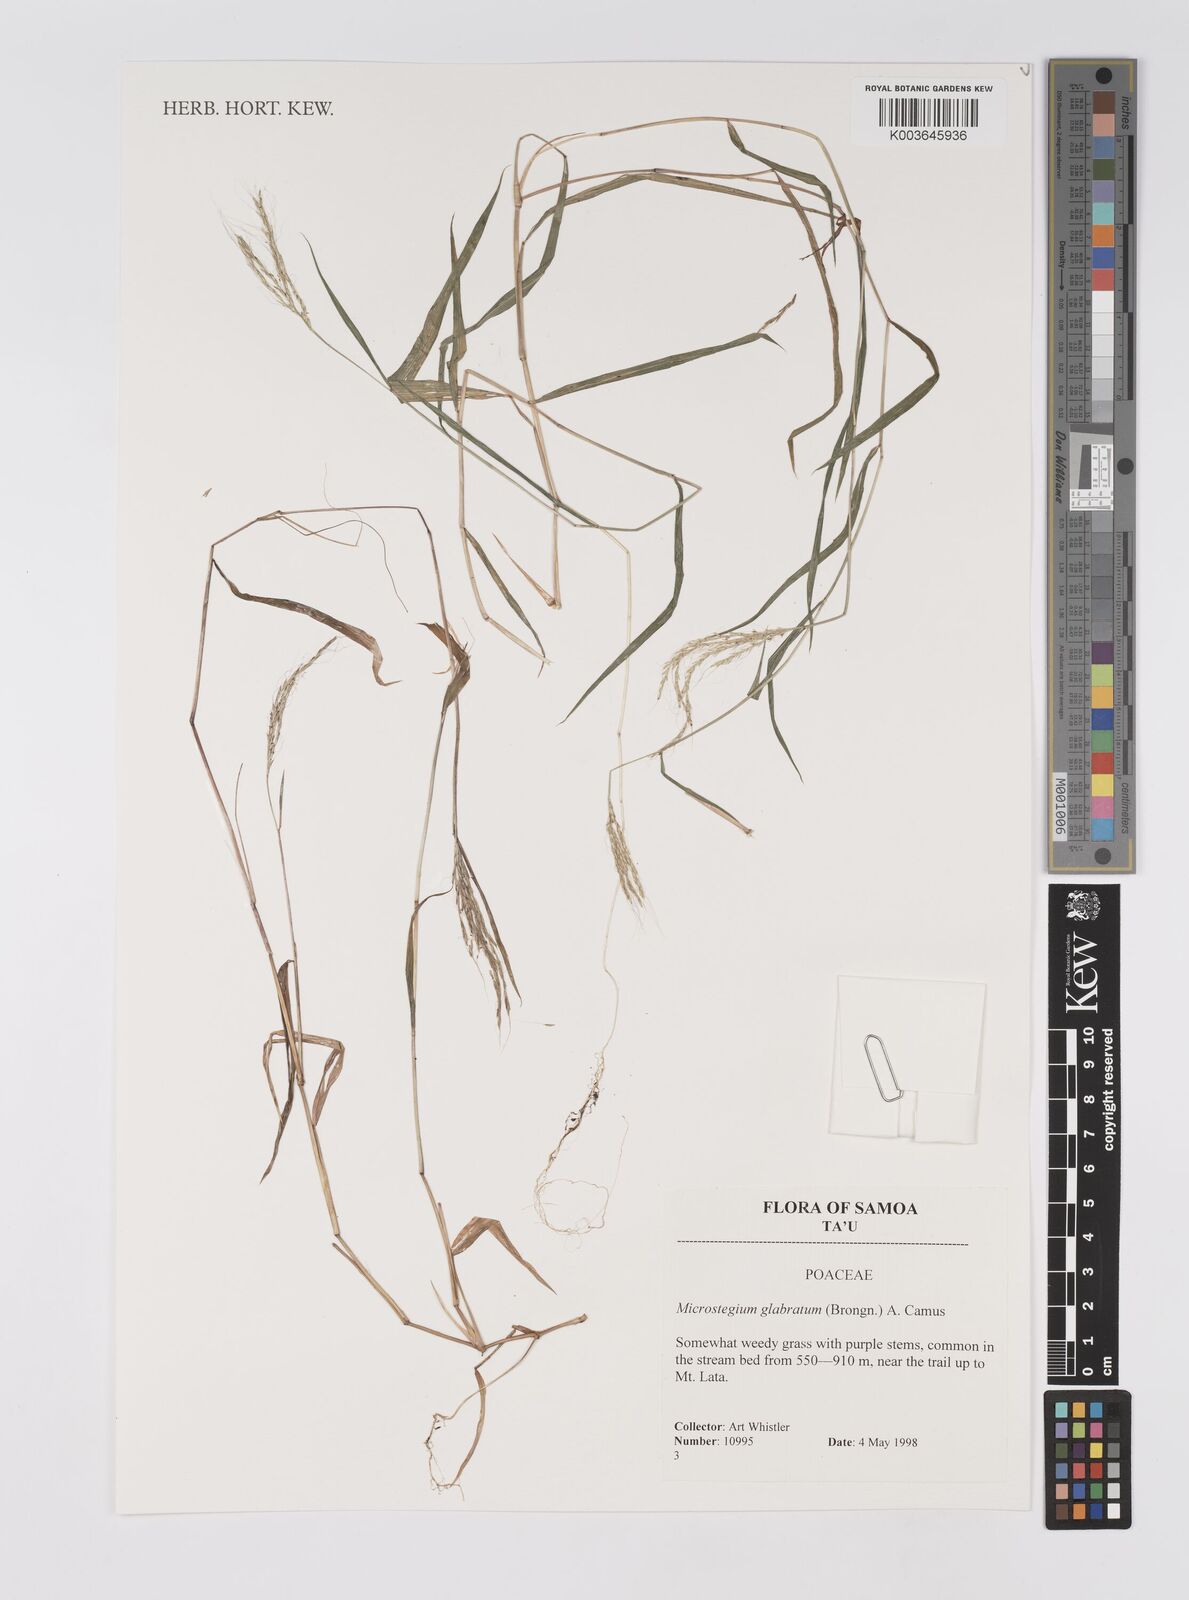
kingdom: Plantae
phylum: Tracheophyta
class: Liliopsida
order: Poales
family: Poaceae
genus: Microstegium
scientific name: Microstegium glabratum
